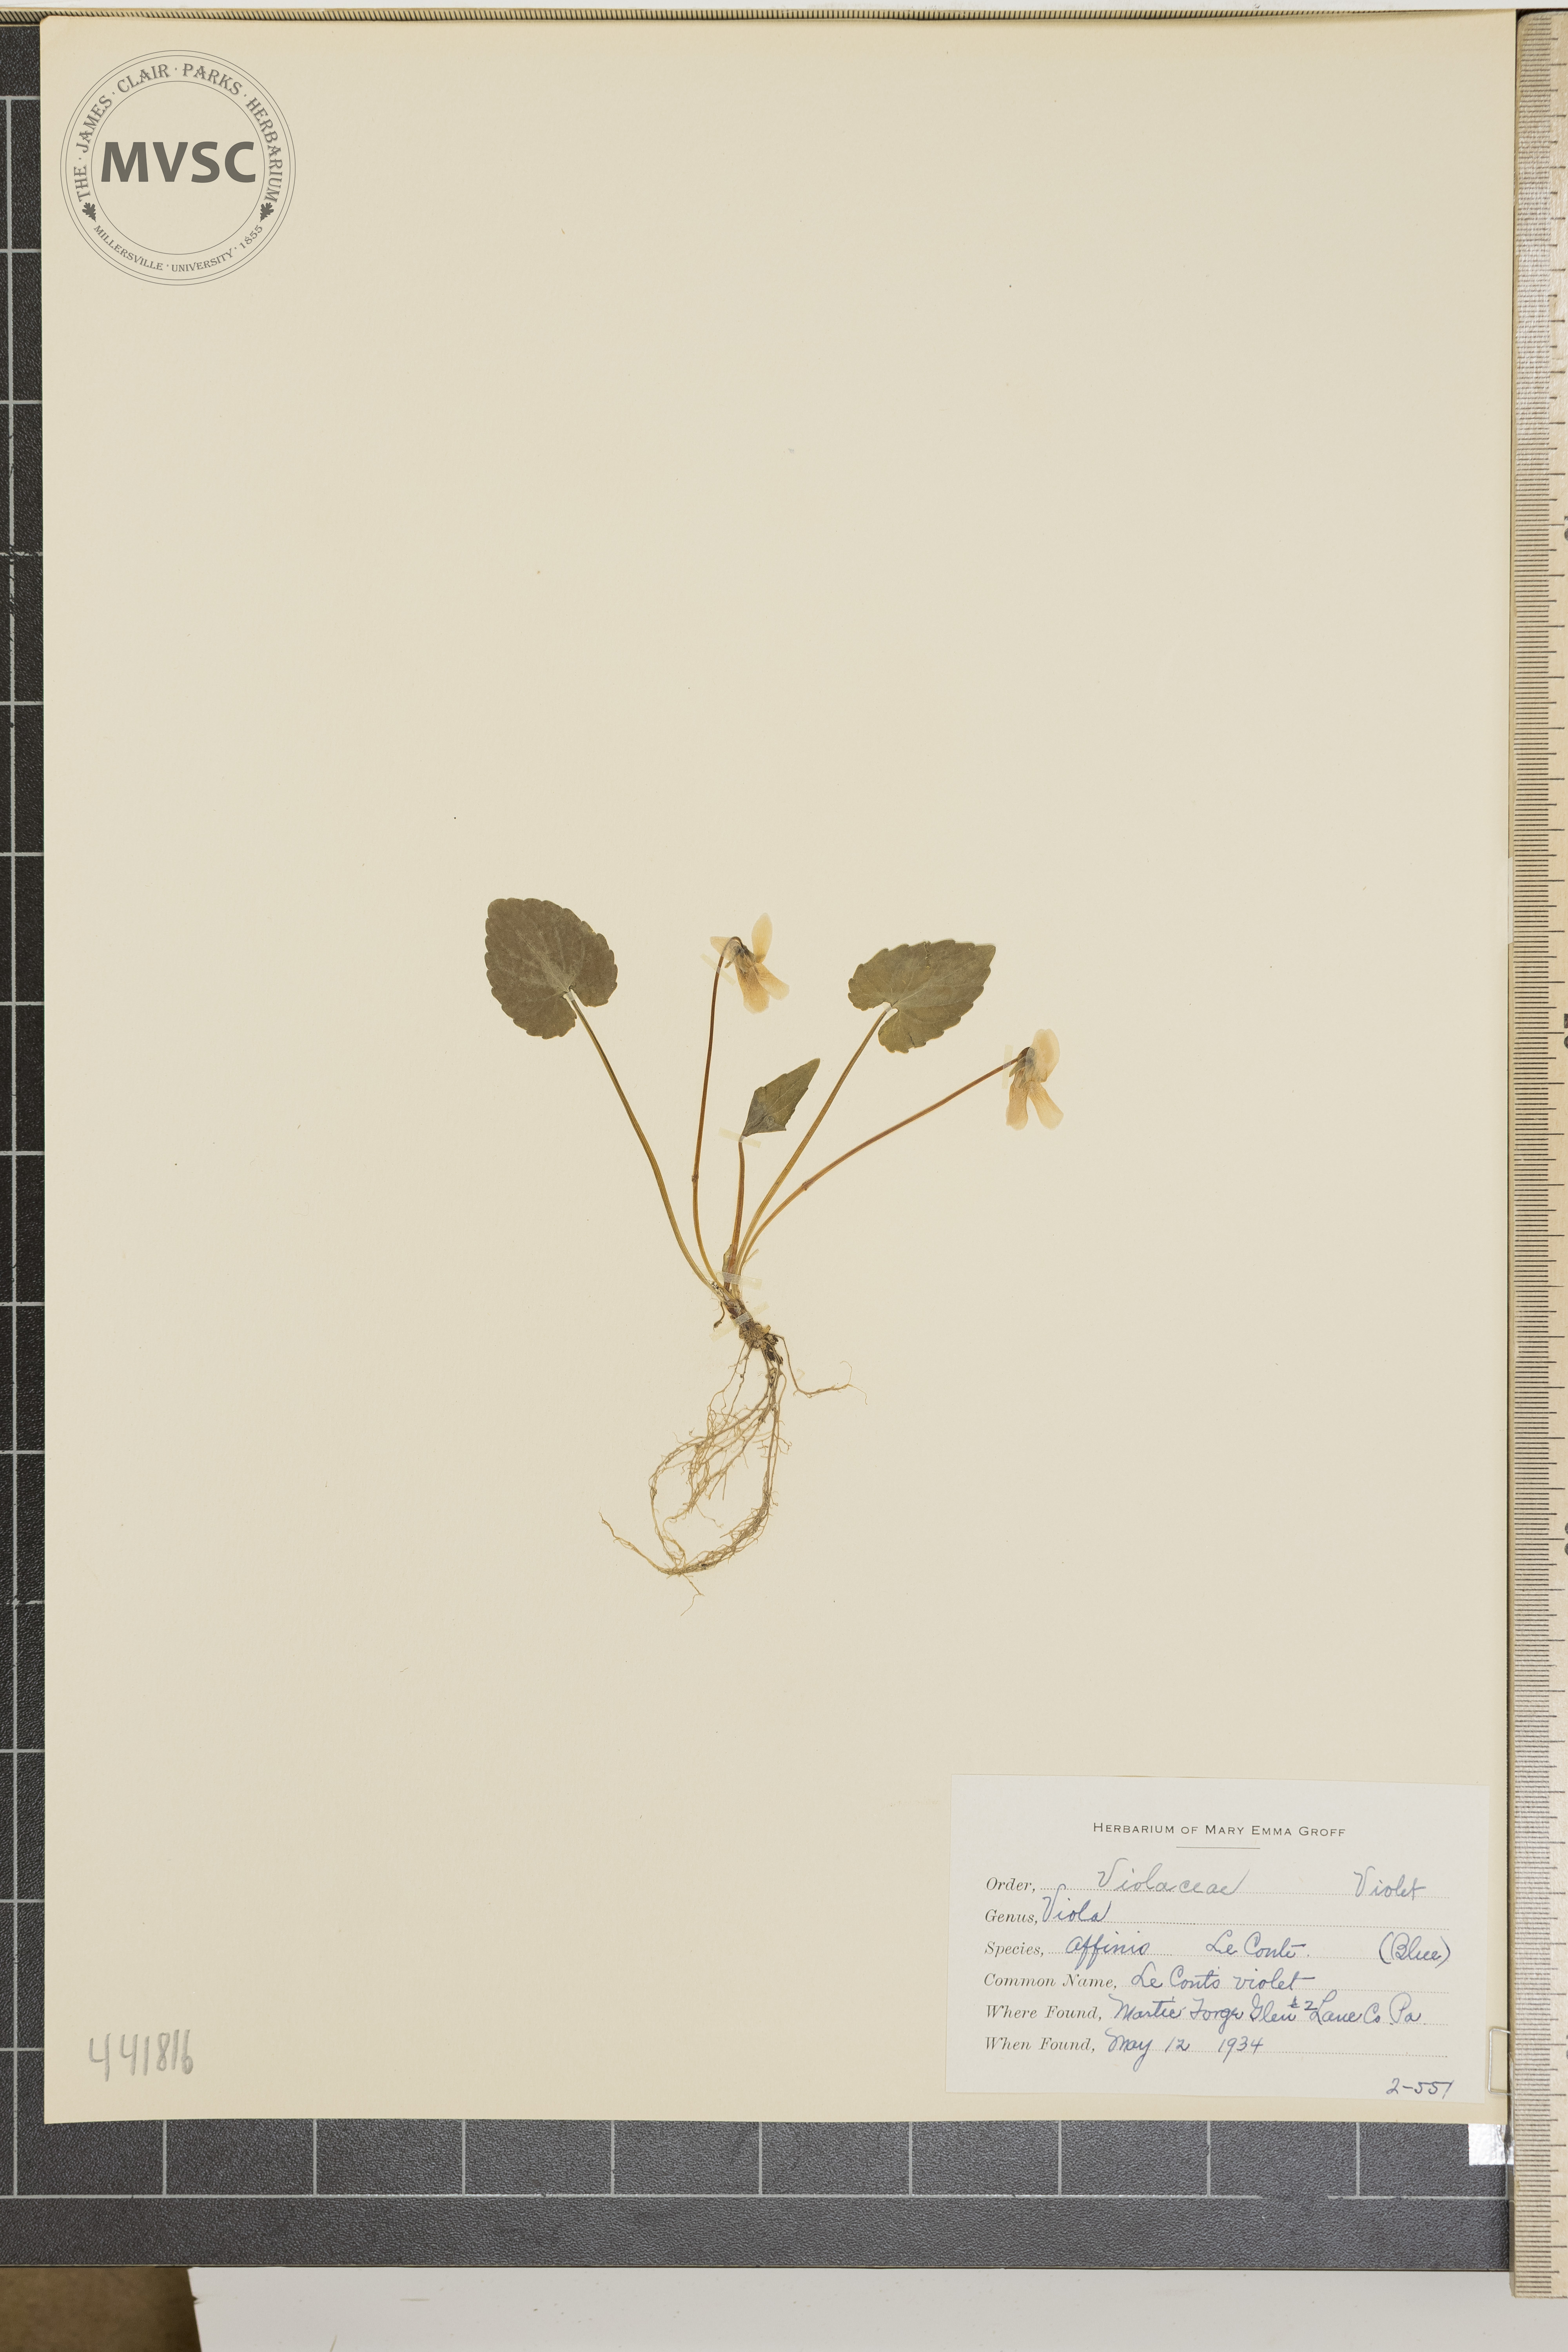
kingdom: Plantae
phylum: Tracheophyta
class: Magnoliopsida
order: Malpighiales
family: Violaceae
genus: Viola
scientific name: Viola affinis
